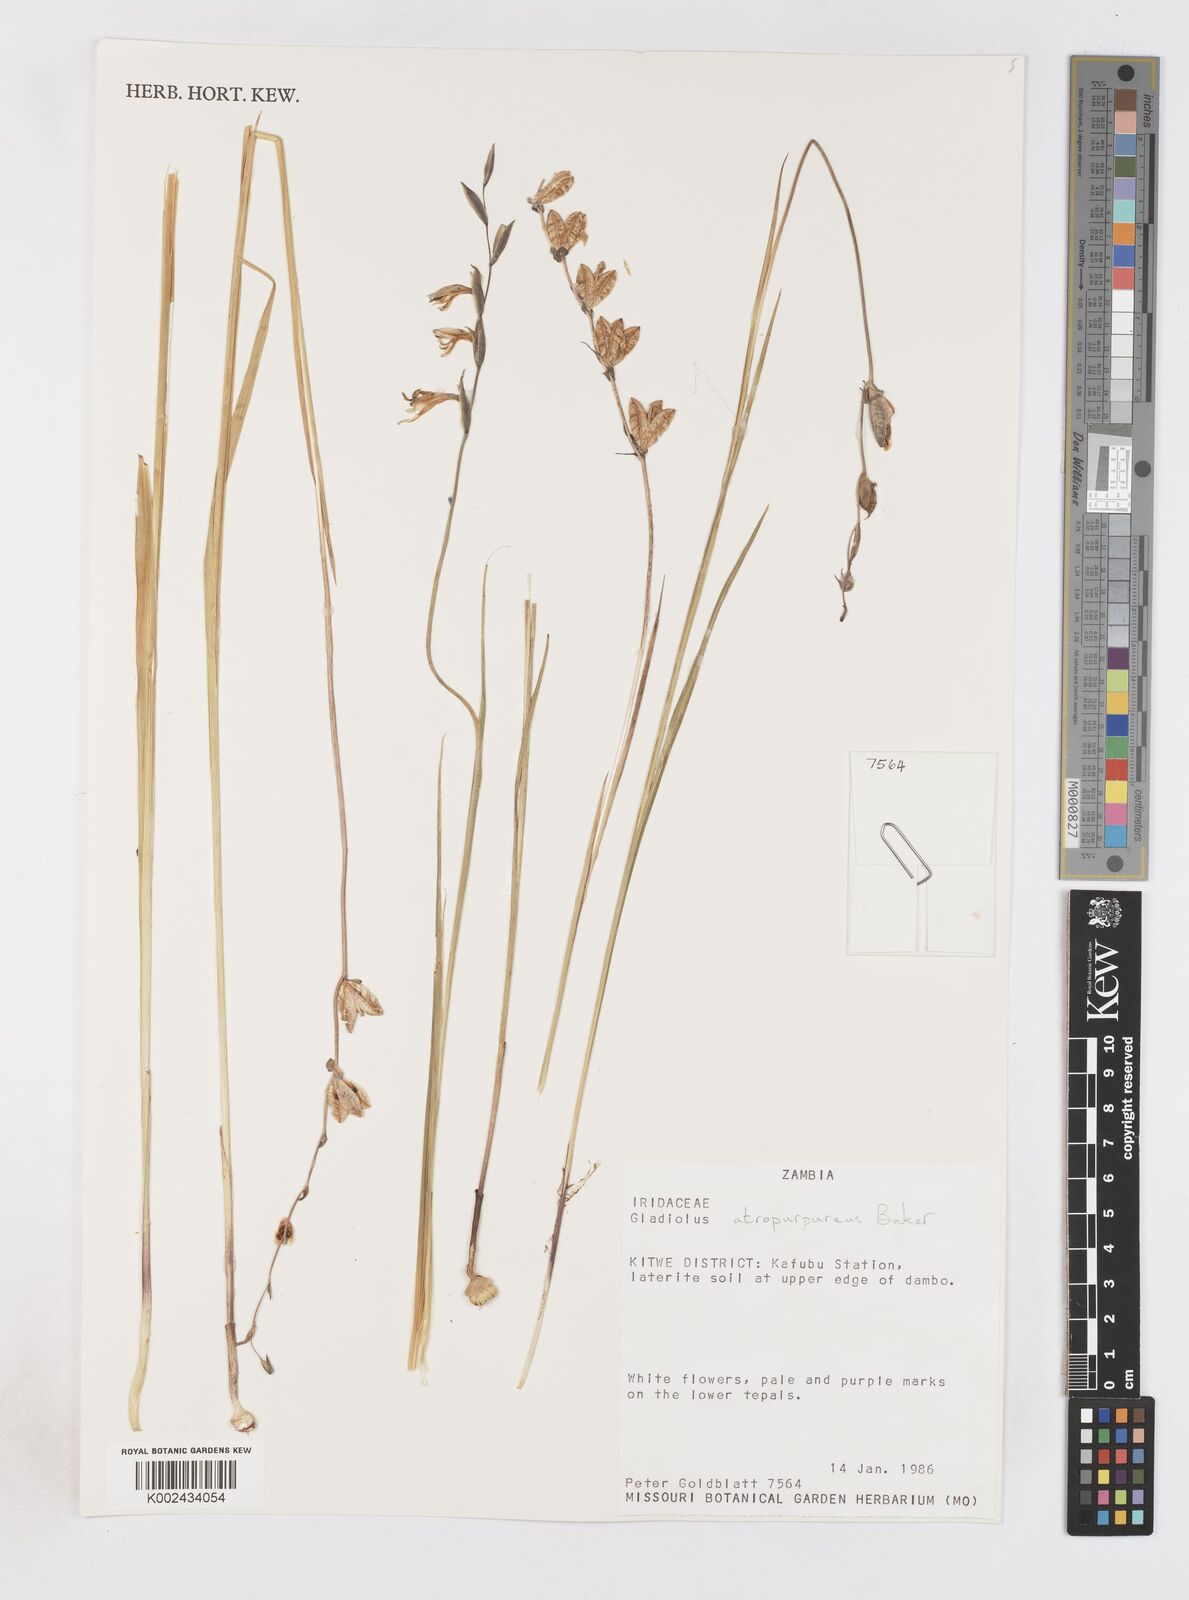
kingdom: Plantae
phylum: Tracheophyta
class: Liliopsida
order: Asparagales
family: Iridaceae
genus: Gladiolus
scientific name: Gladiolus atropurpureus
